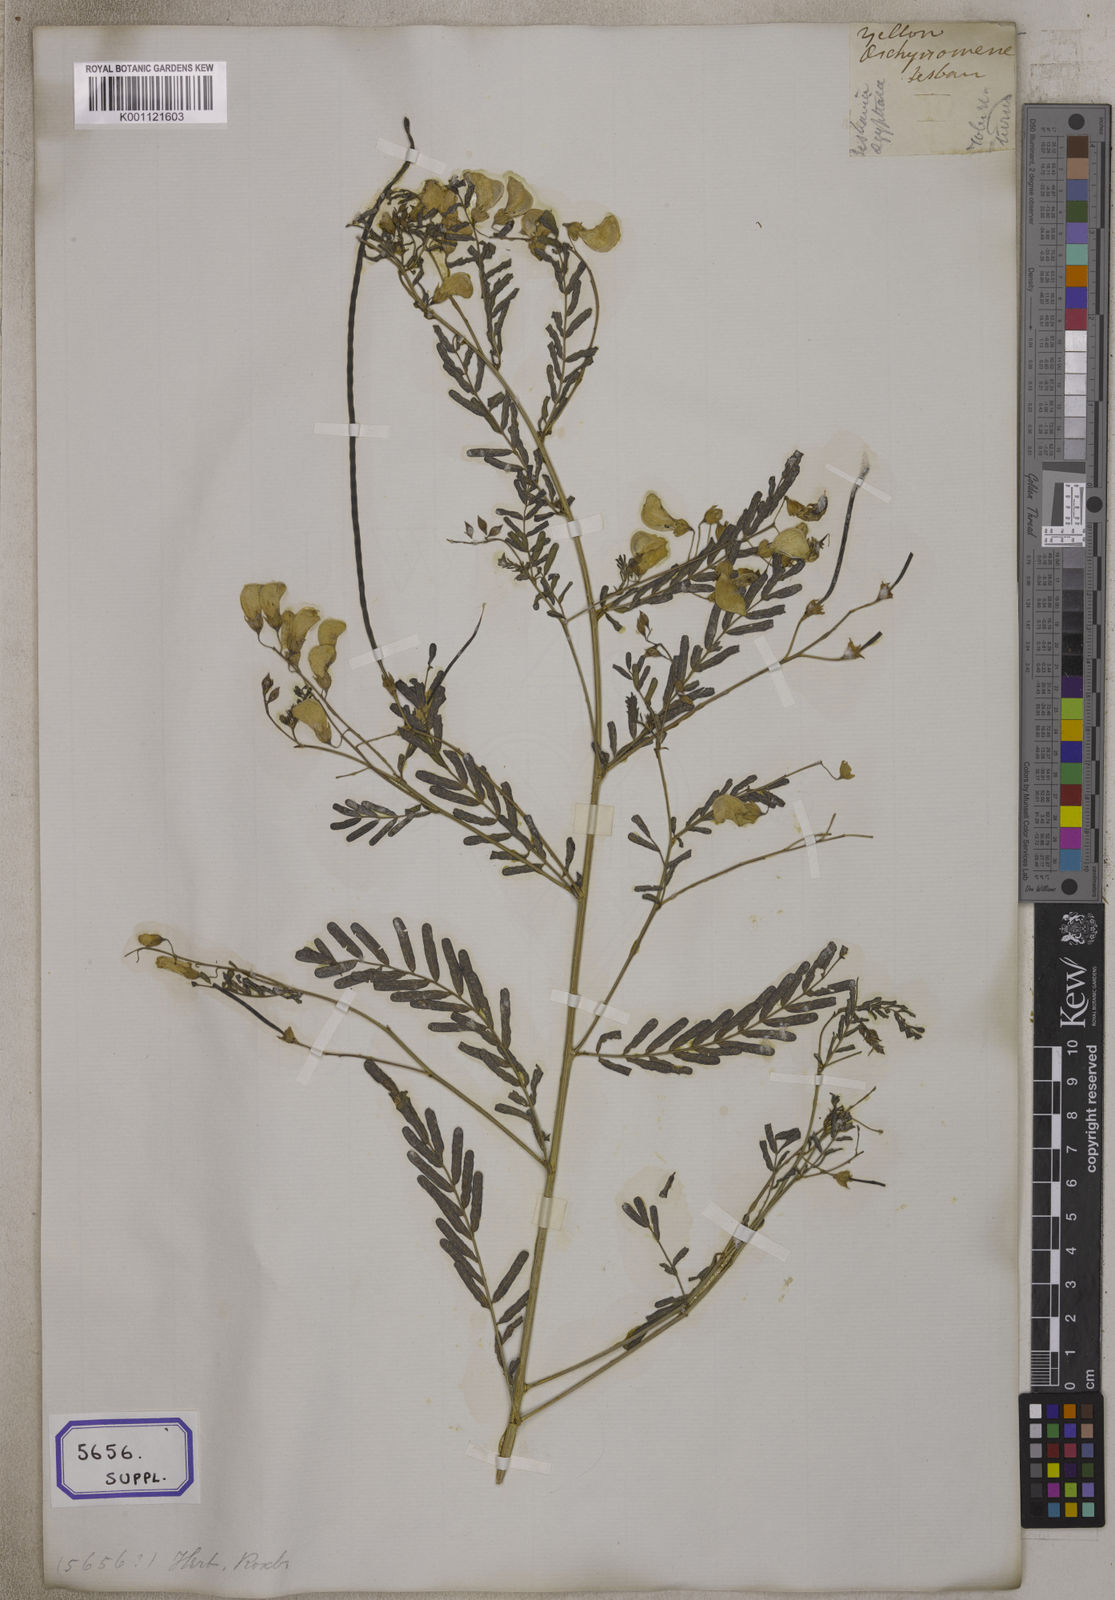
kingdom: Plantae
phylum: Tracheophyta
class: Magnoliopsida
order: Fabales
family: Fabaceae
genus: Sesbania
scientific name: Sesbania
